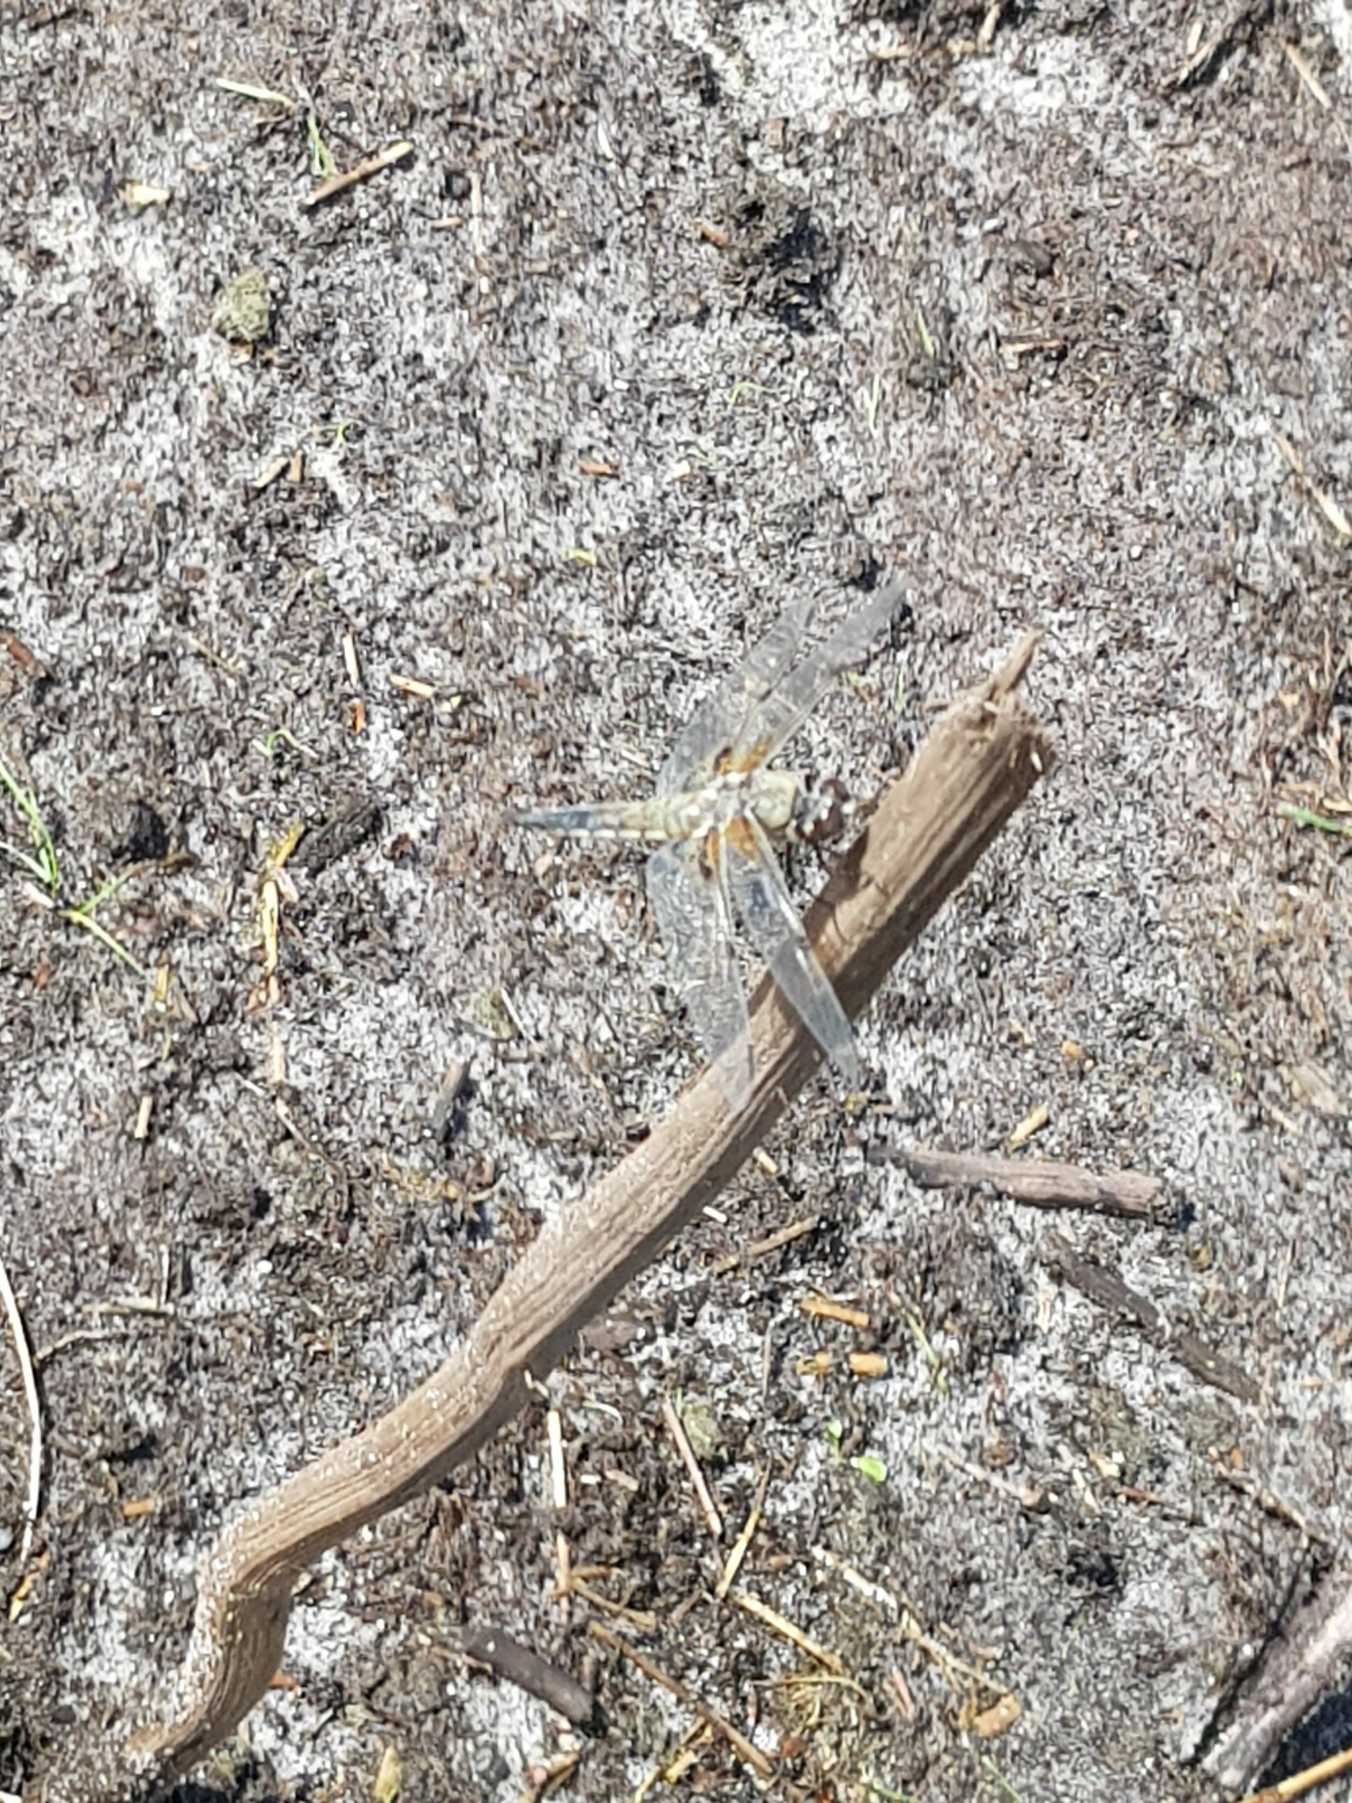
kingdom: Animalia
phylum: Arthropoda
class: Insecta
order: Odonata
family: Libellulidae
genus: Libellula
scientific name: Libellula quadrimaculata
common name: Fireplettet libel
